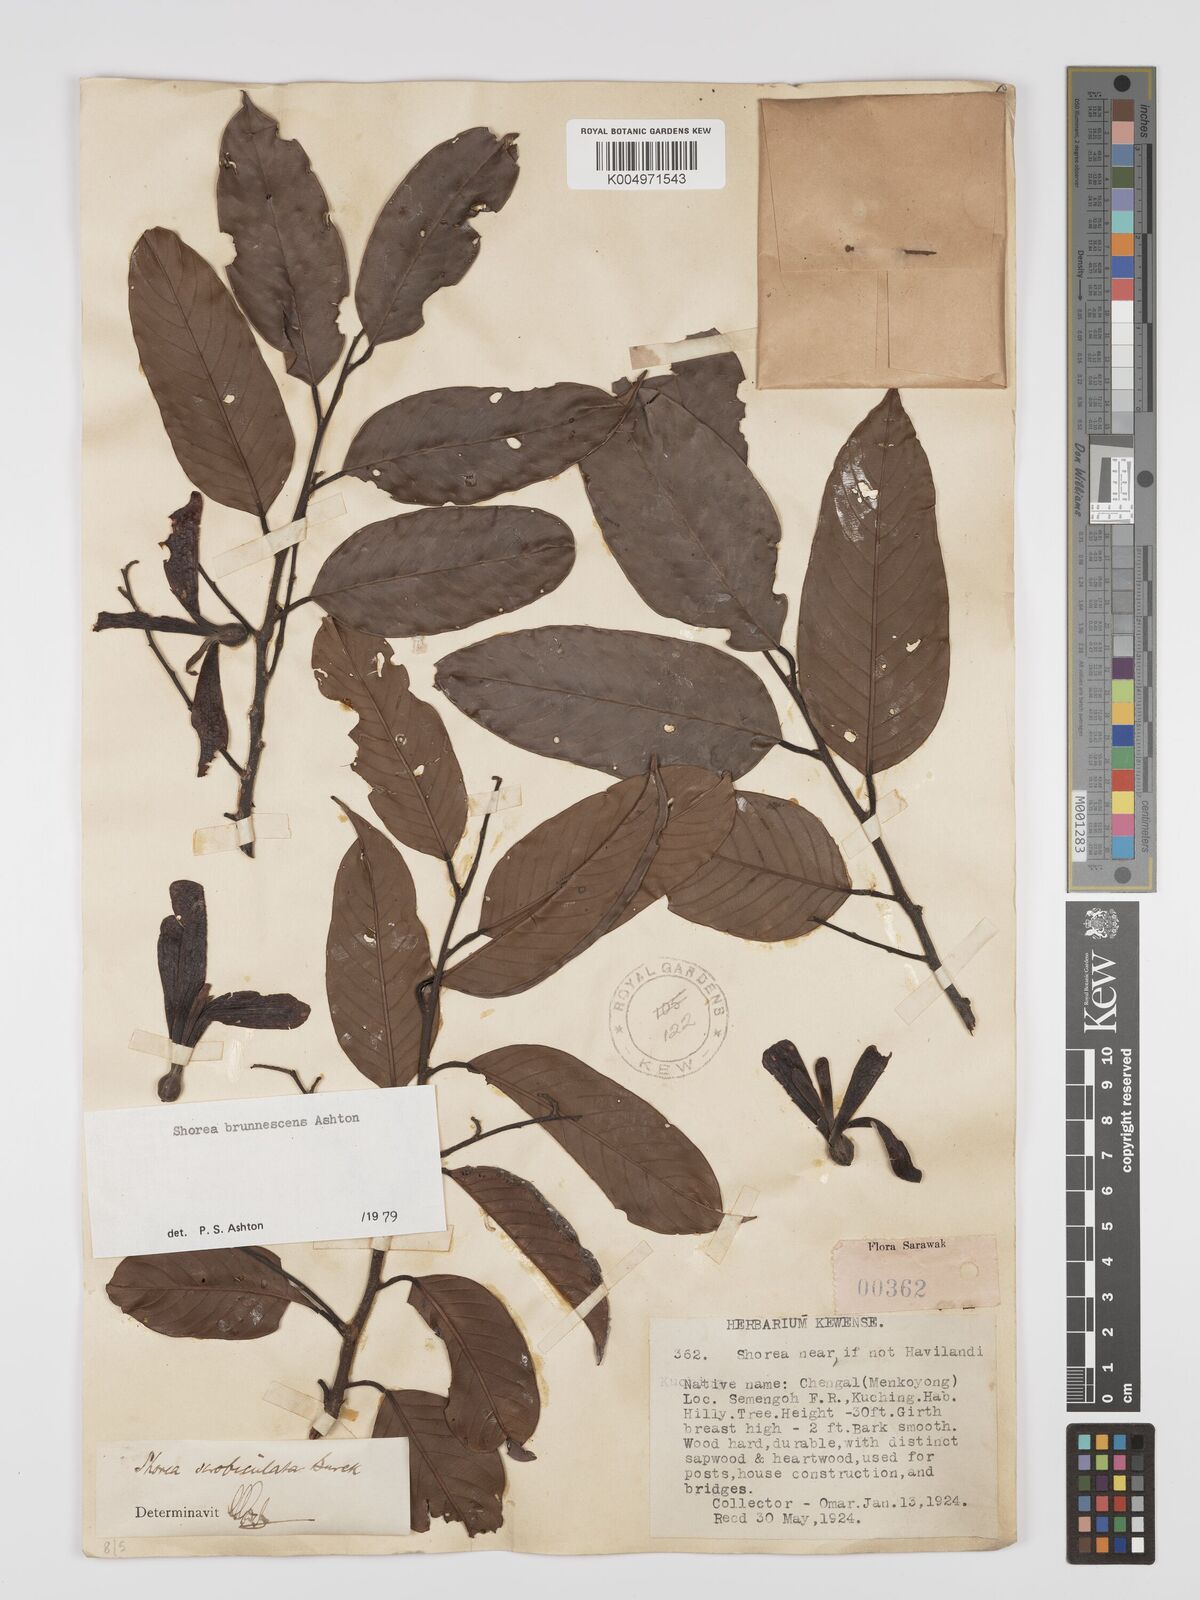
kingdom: Plantae
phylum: Tracheophyta
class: Magnoliopsida
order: Malvales
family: Dipterocarpaceae
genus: Shorea
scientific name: Shorea brunnescens
